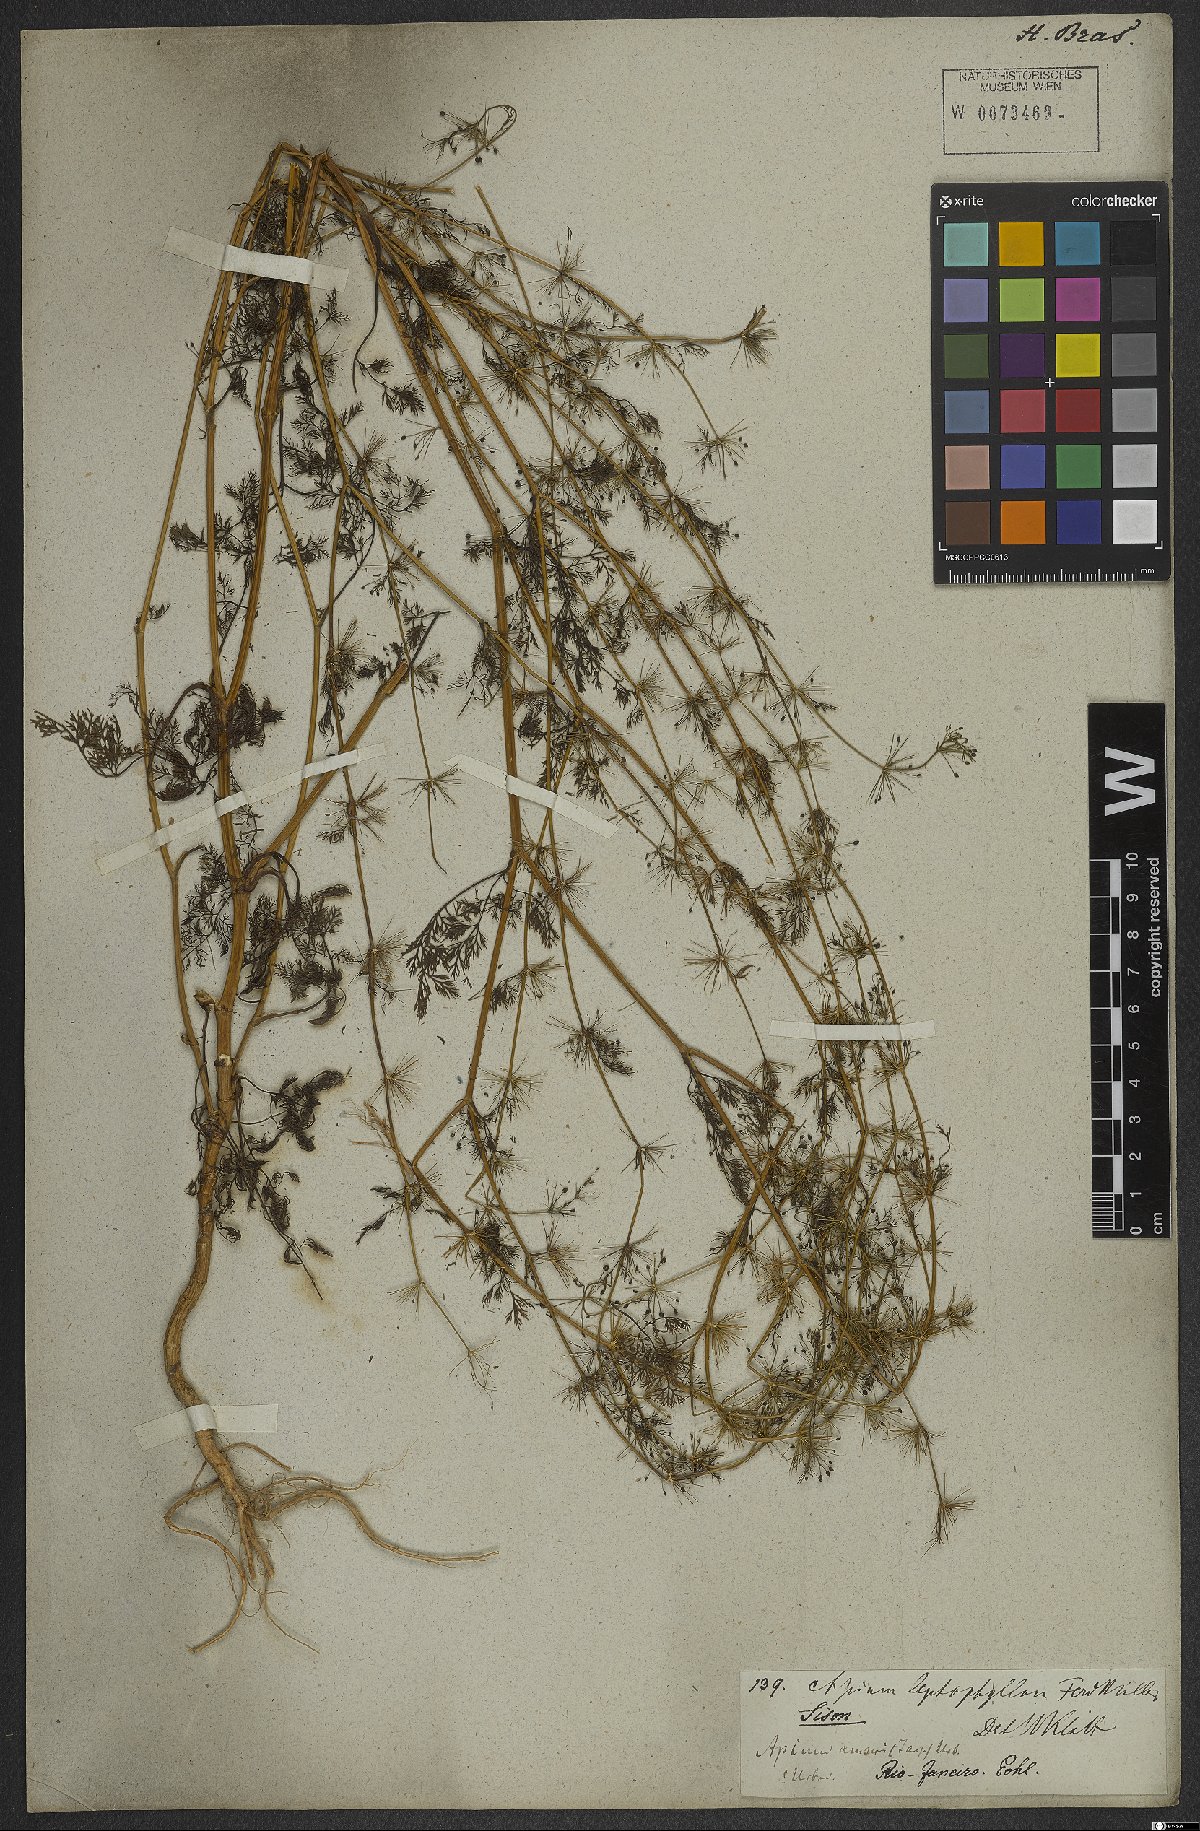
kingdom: Plantae
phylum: Tracheophyta
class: Magnoliopsida
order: Apiales
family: Apiaceae
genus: Cyclospermum
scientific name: Cyclospermum leptophyllum
